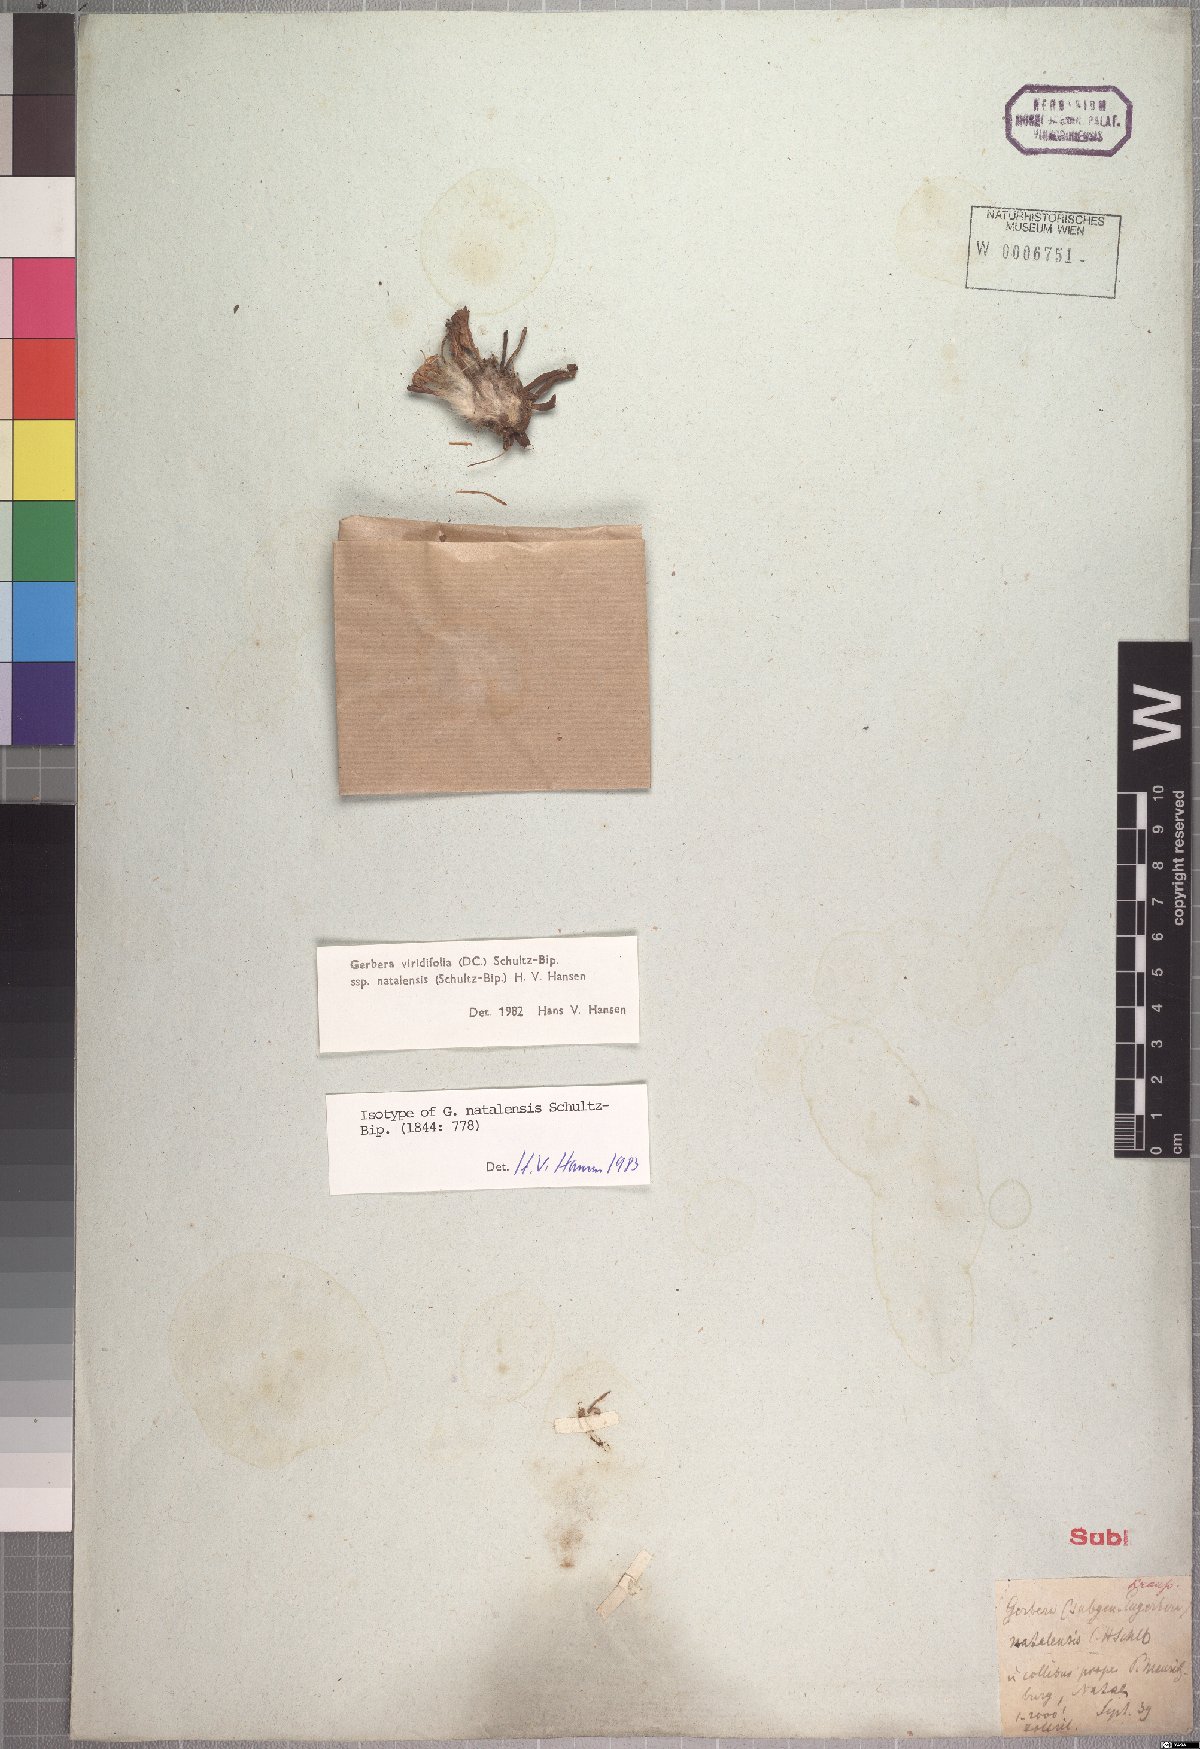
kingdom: Plantae
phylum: Tracheophyta
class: Magnoliopsida
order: Asterales
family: Asteraceae
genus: Gerbera
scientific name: Gerbera natalensis
